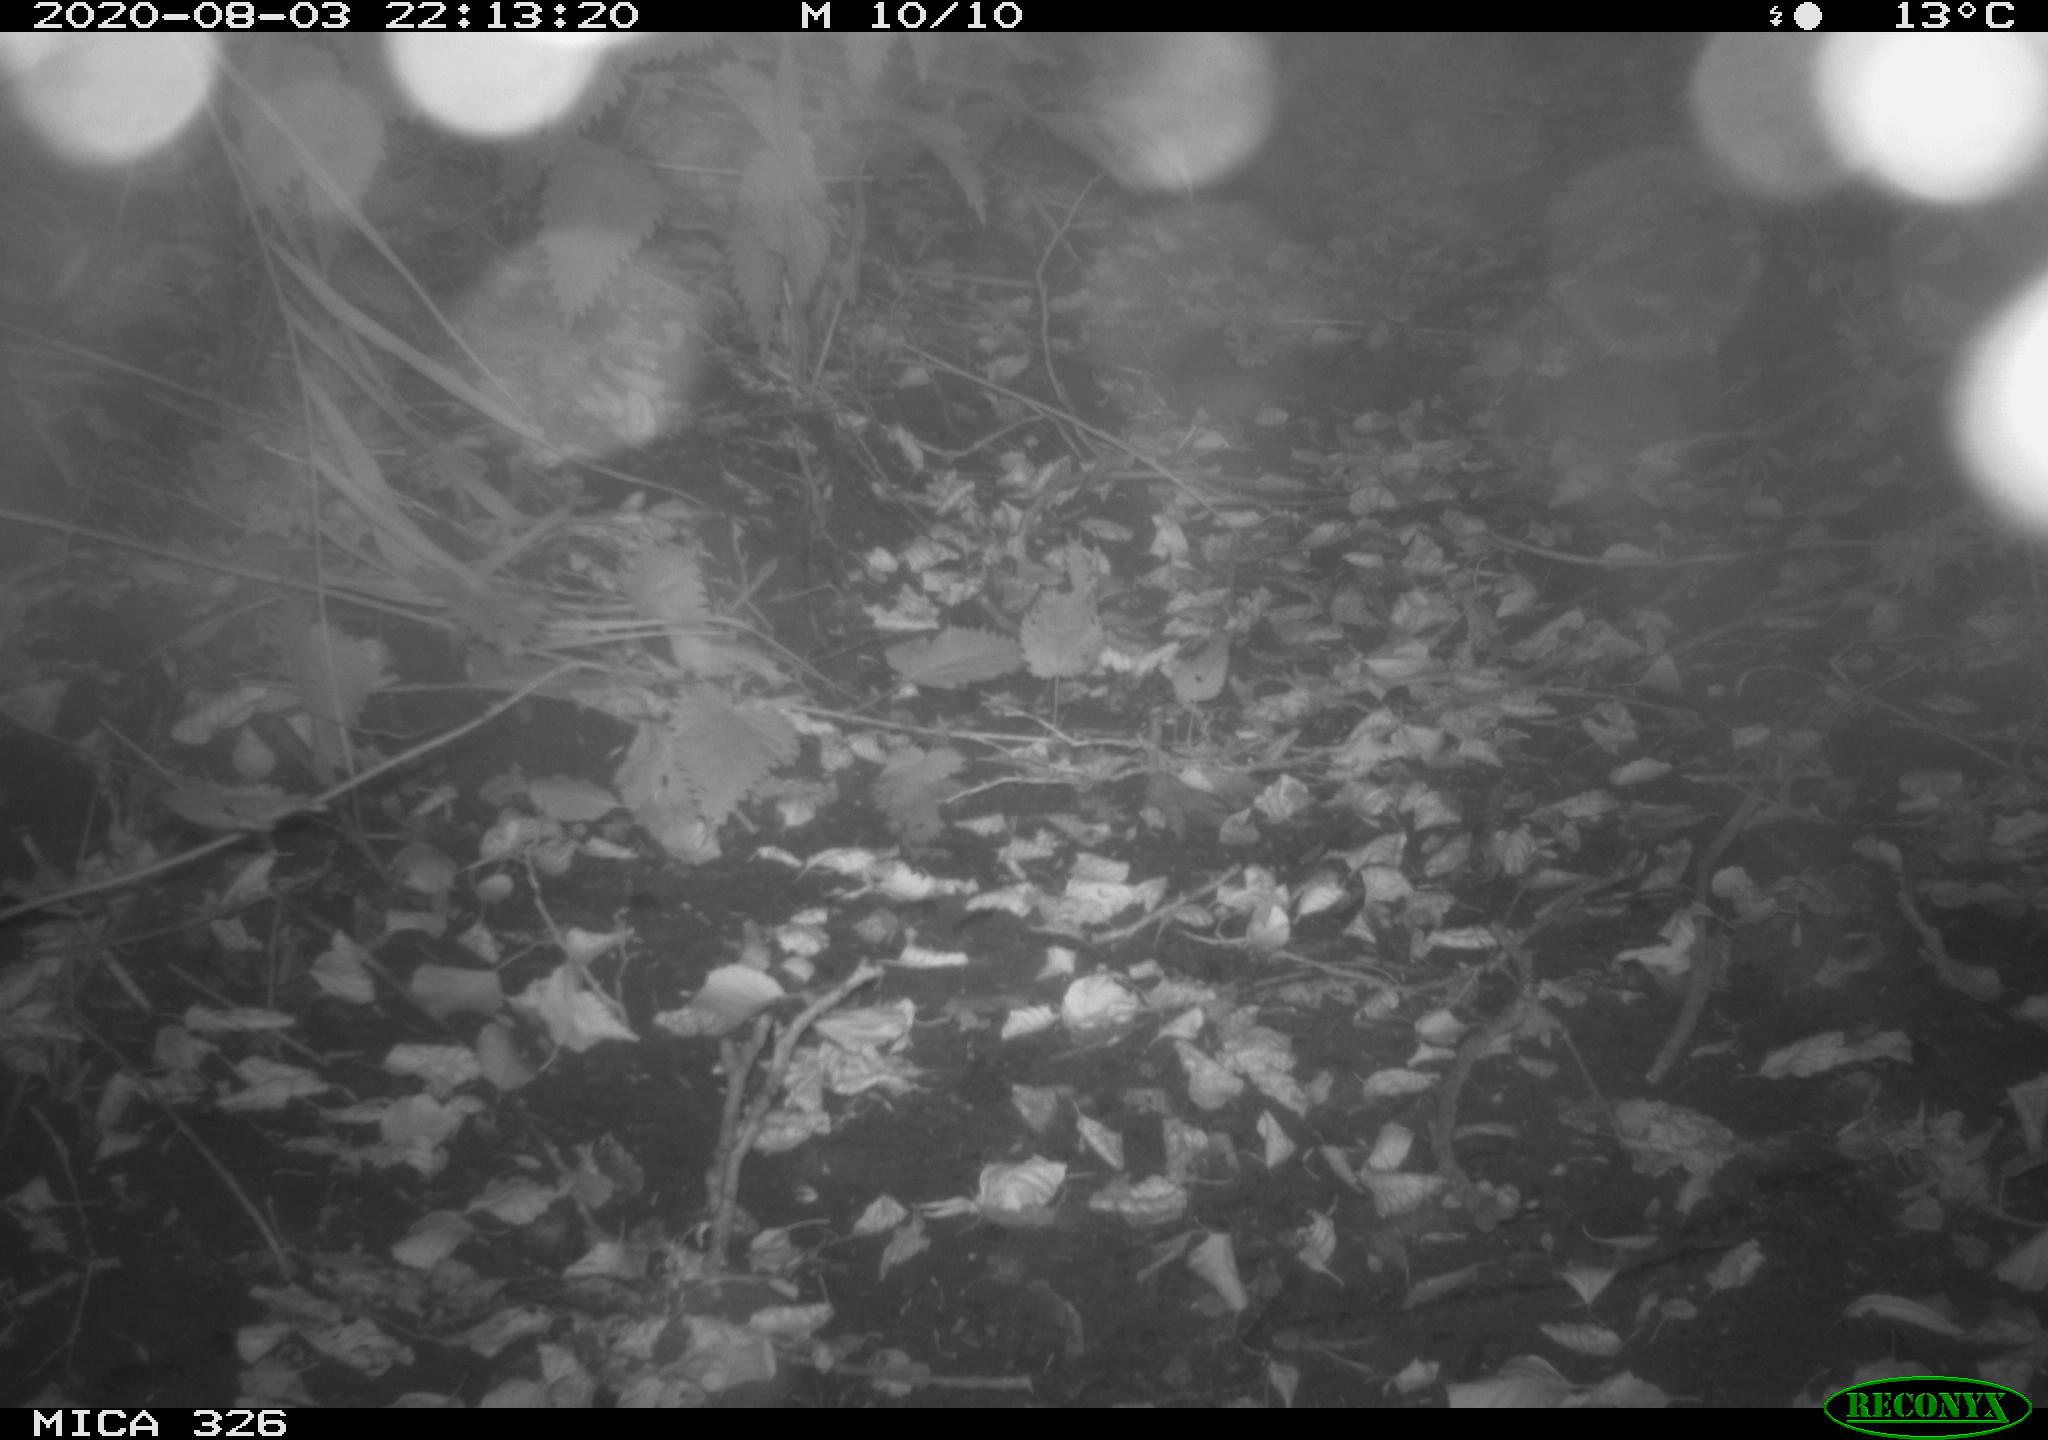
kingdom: Animalia
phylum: Chordata
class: Mammalia
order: Rodentia
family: Muridae
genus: Rattus
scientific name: Rattus norvegicus
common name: Brown rat
